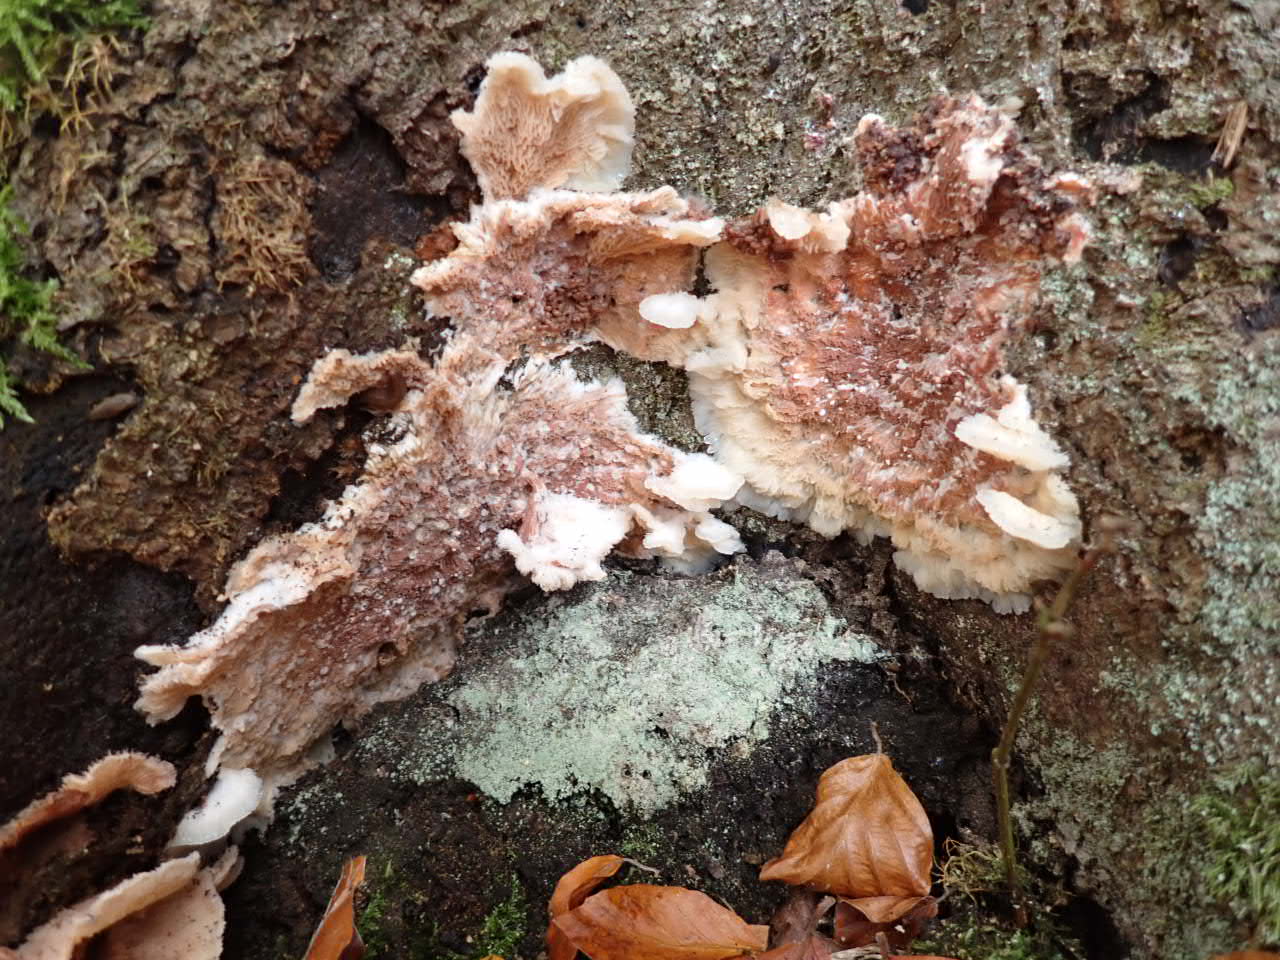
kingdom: Fungi
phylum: Basidiomycota
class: Agaricomycetes
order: Polyporales
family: Meruliaceae
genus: Phlebia
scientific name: Phlebia tremellosa
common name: bævrende åresvamp
